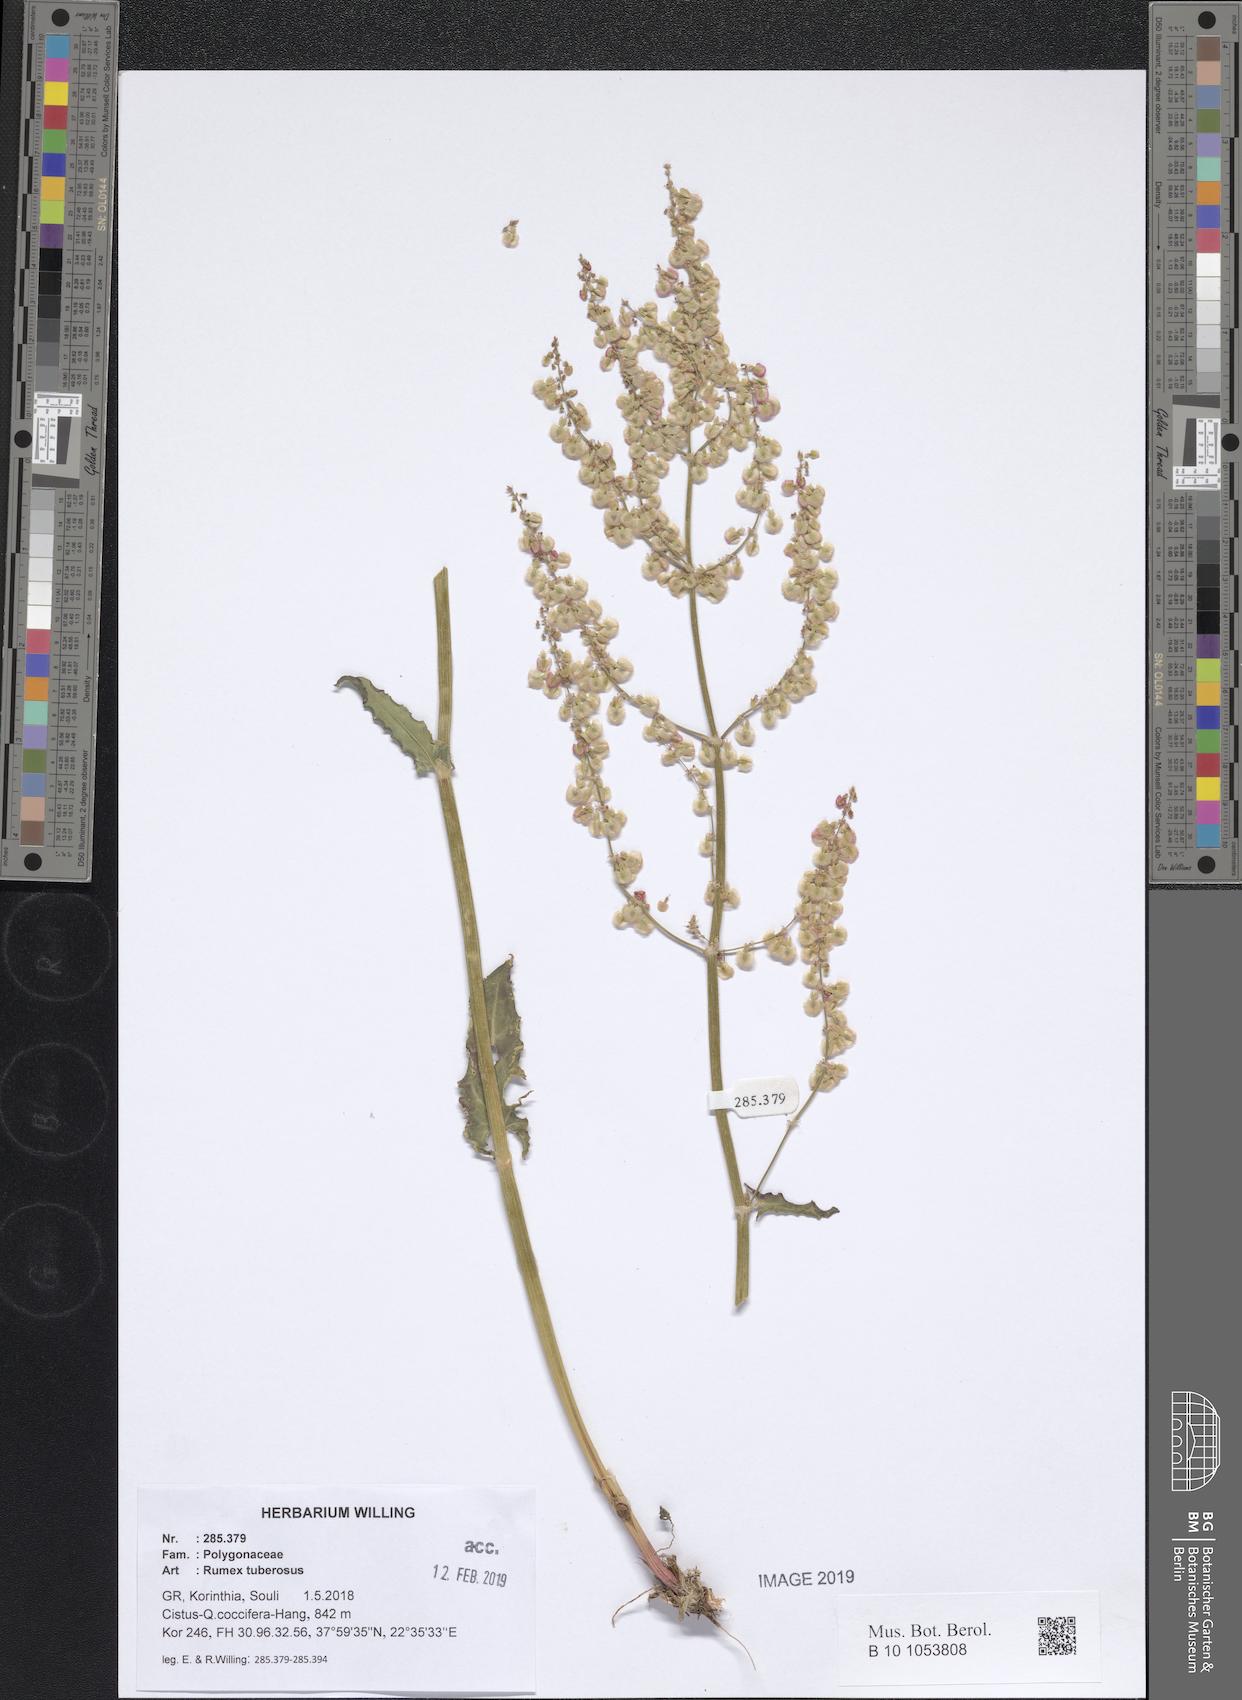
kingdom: Plantae
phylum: Tracheophyta
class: Magnoliopsida
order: Caryophyllales
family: Polygonaceae
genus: Rumex
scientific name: Rumex tuberosus
